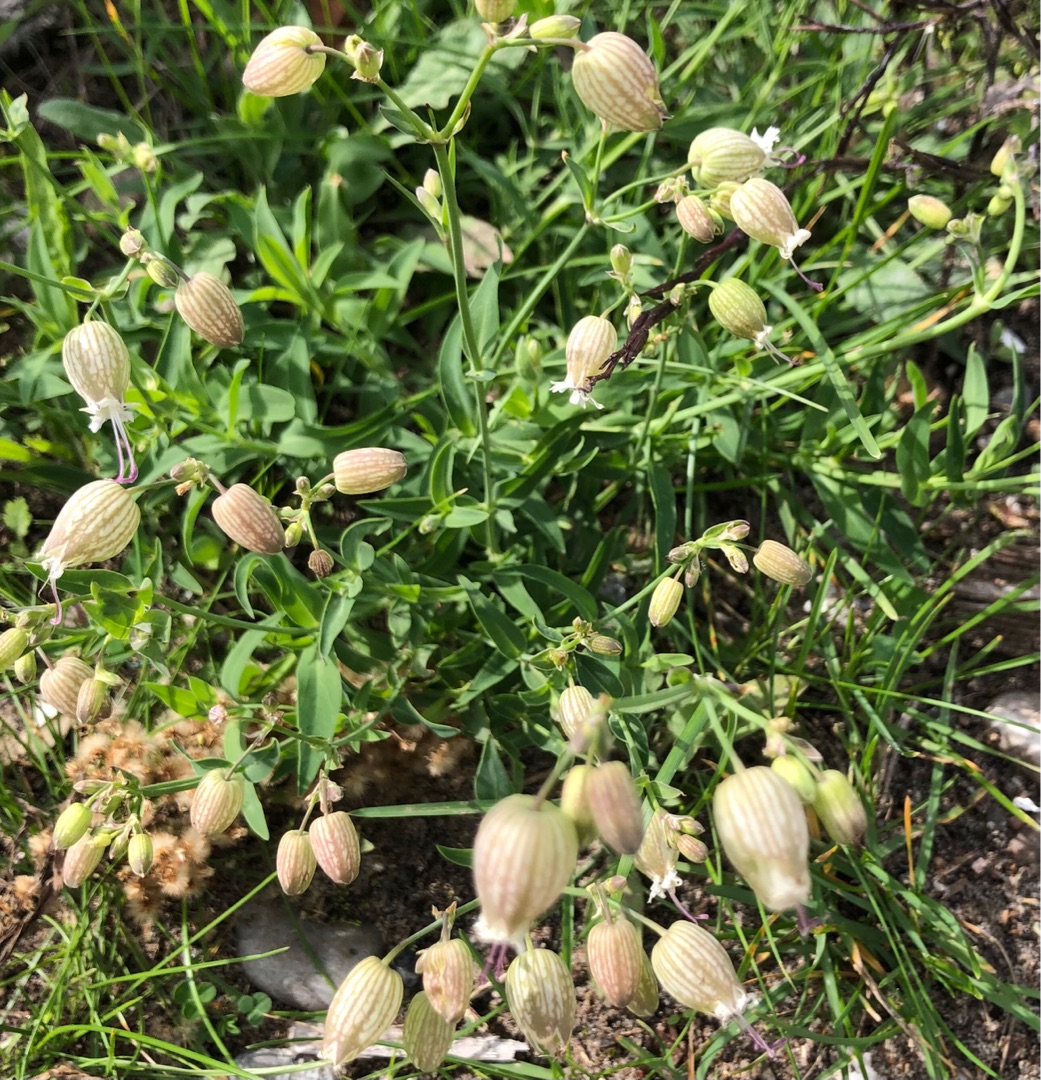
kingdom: Plantae
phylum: Tracheophyta
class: Magnoliopsida
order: Caryophyllales
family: Caryophyllaceae
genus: Silene
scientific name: Silene vulgaris
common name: Blæresmælde
